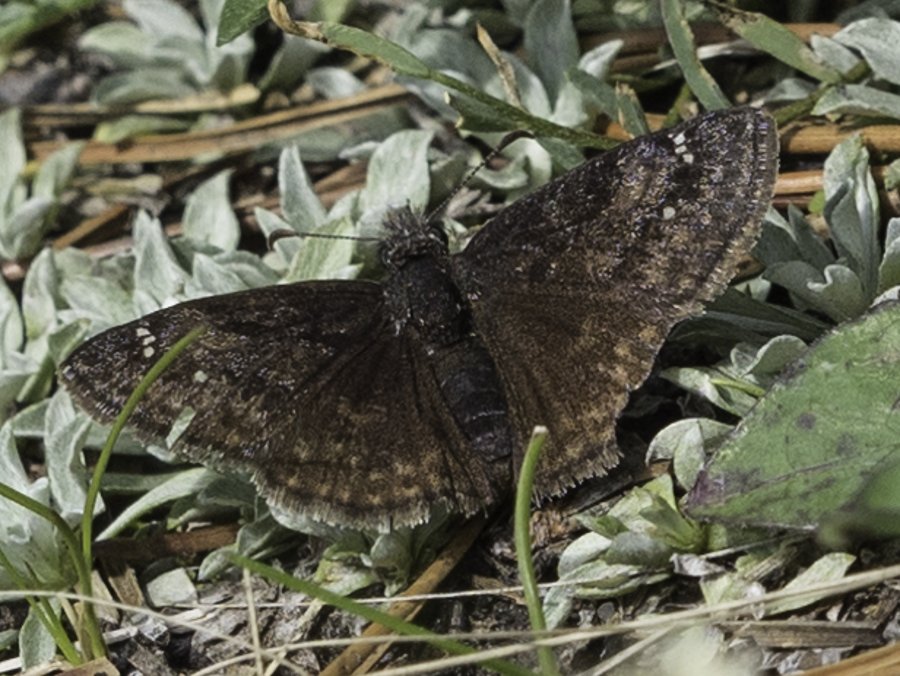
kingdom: Animalia
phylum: Arthropoda
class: Insecta
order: Lepidoptera
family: Hesperiidae
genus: Gesta
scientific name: Gesta
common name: Persius Duskywing
